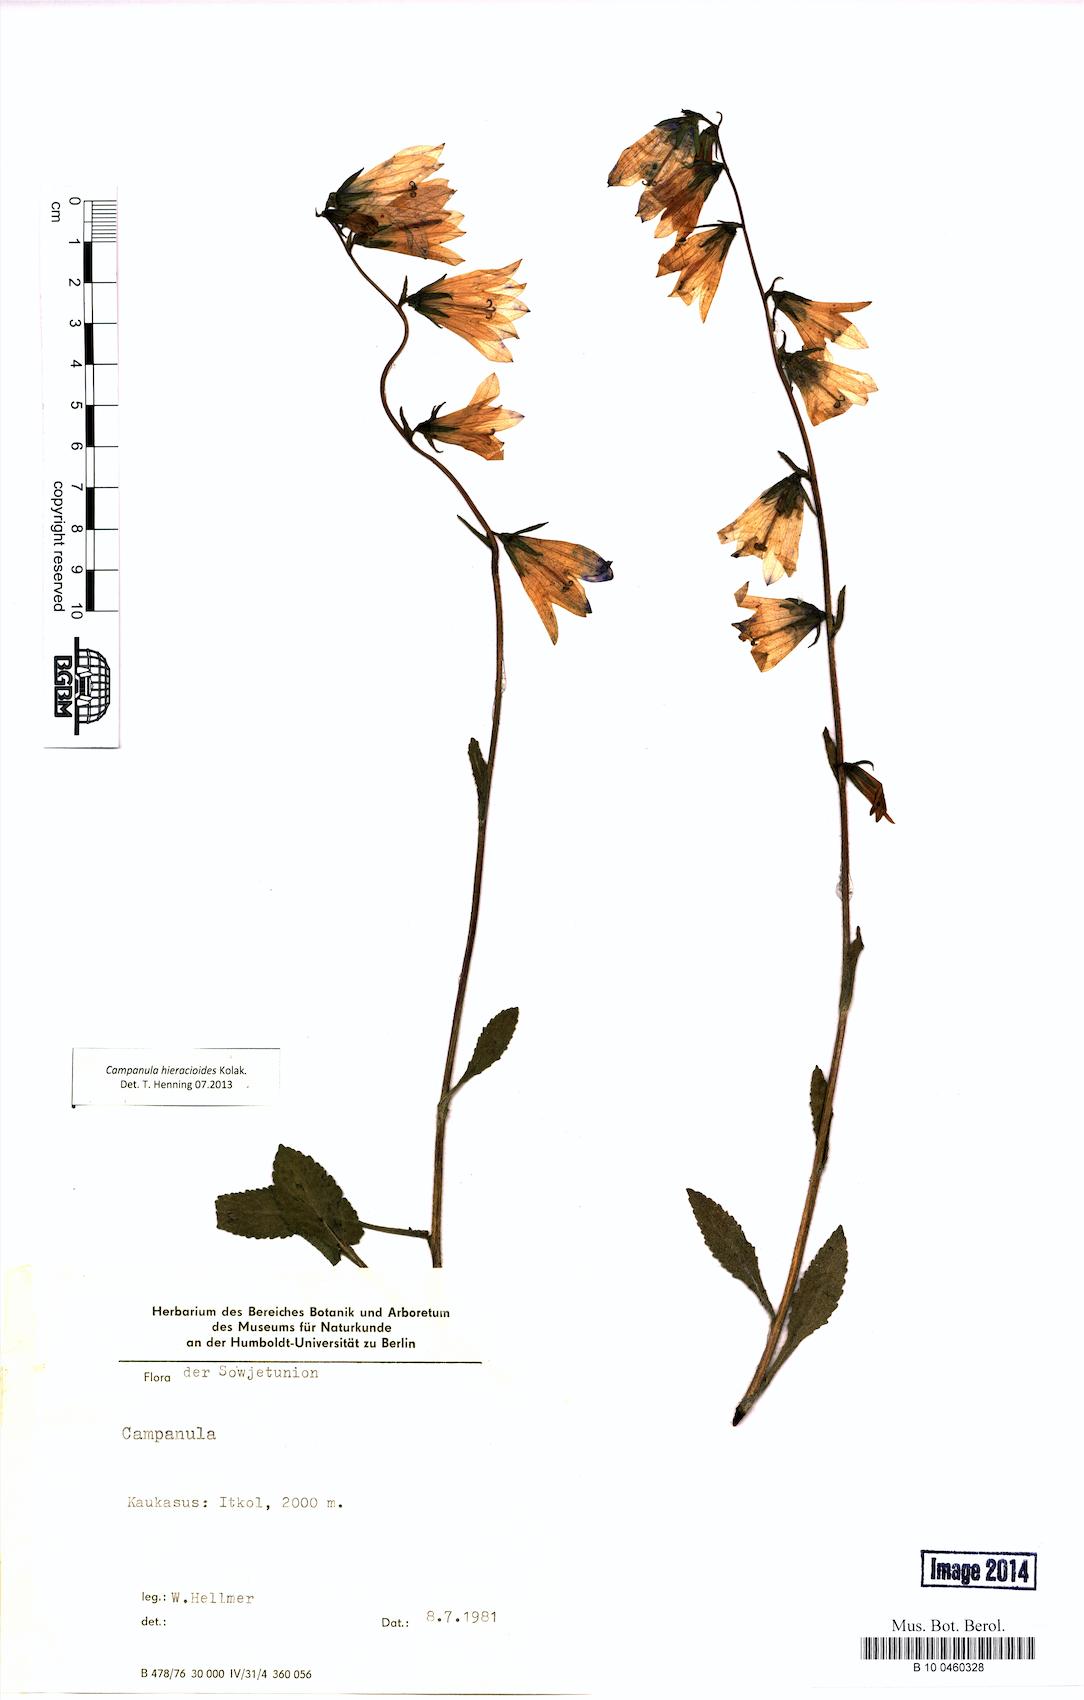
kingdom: Plantae
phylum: Tracheophyta
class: Magnoliopsida
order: Asterales
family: Campanulaceae
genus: Campanula
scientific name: Campanula hieracioides
